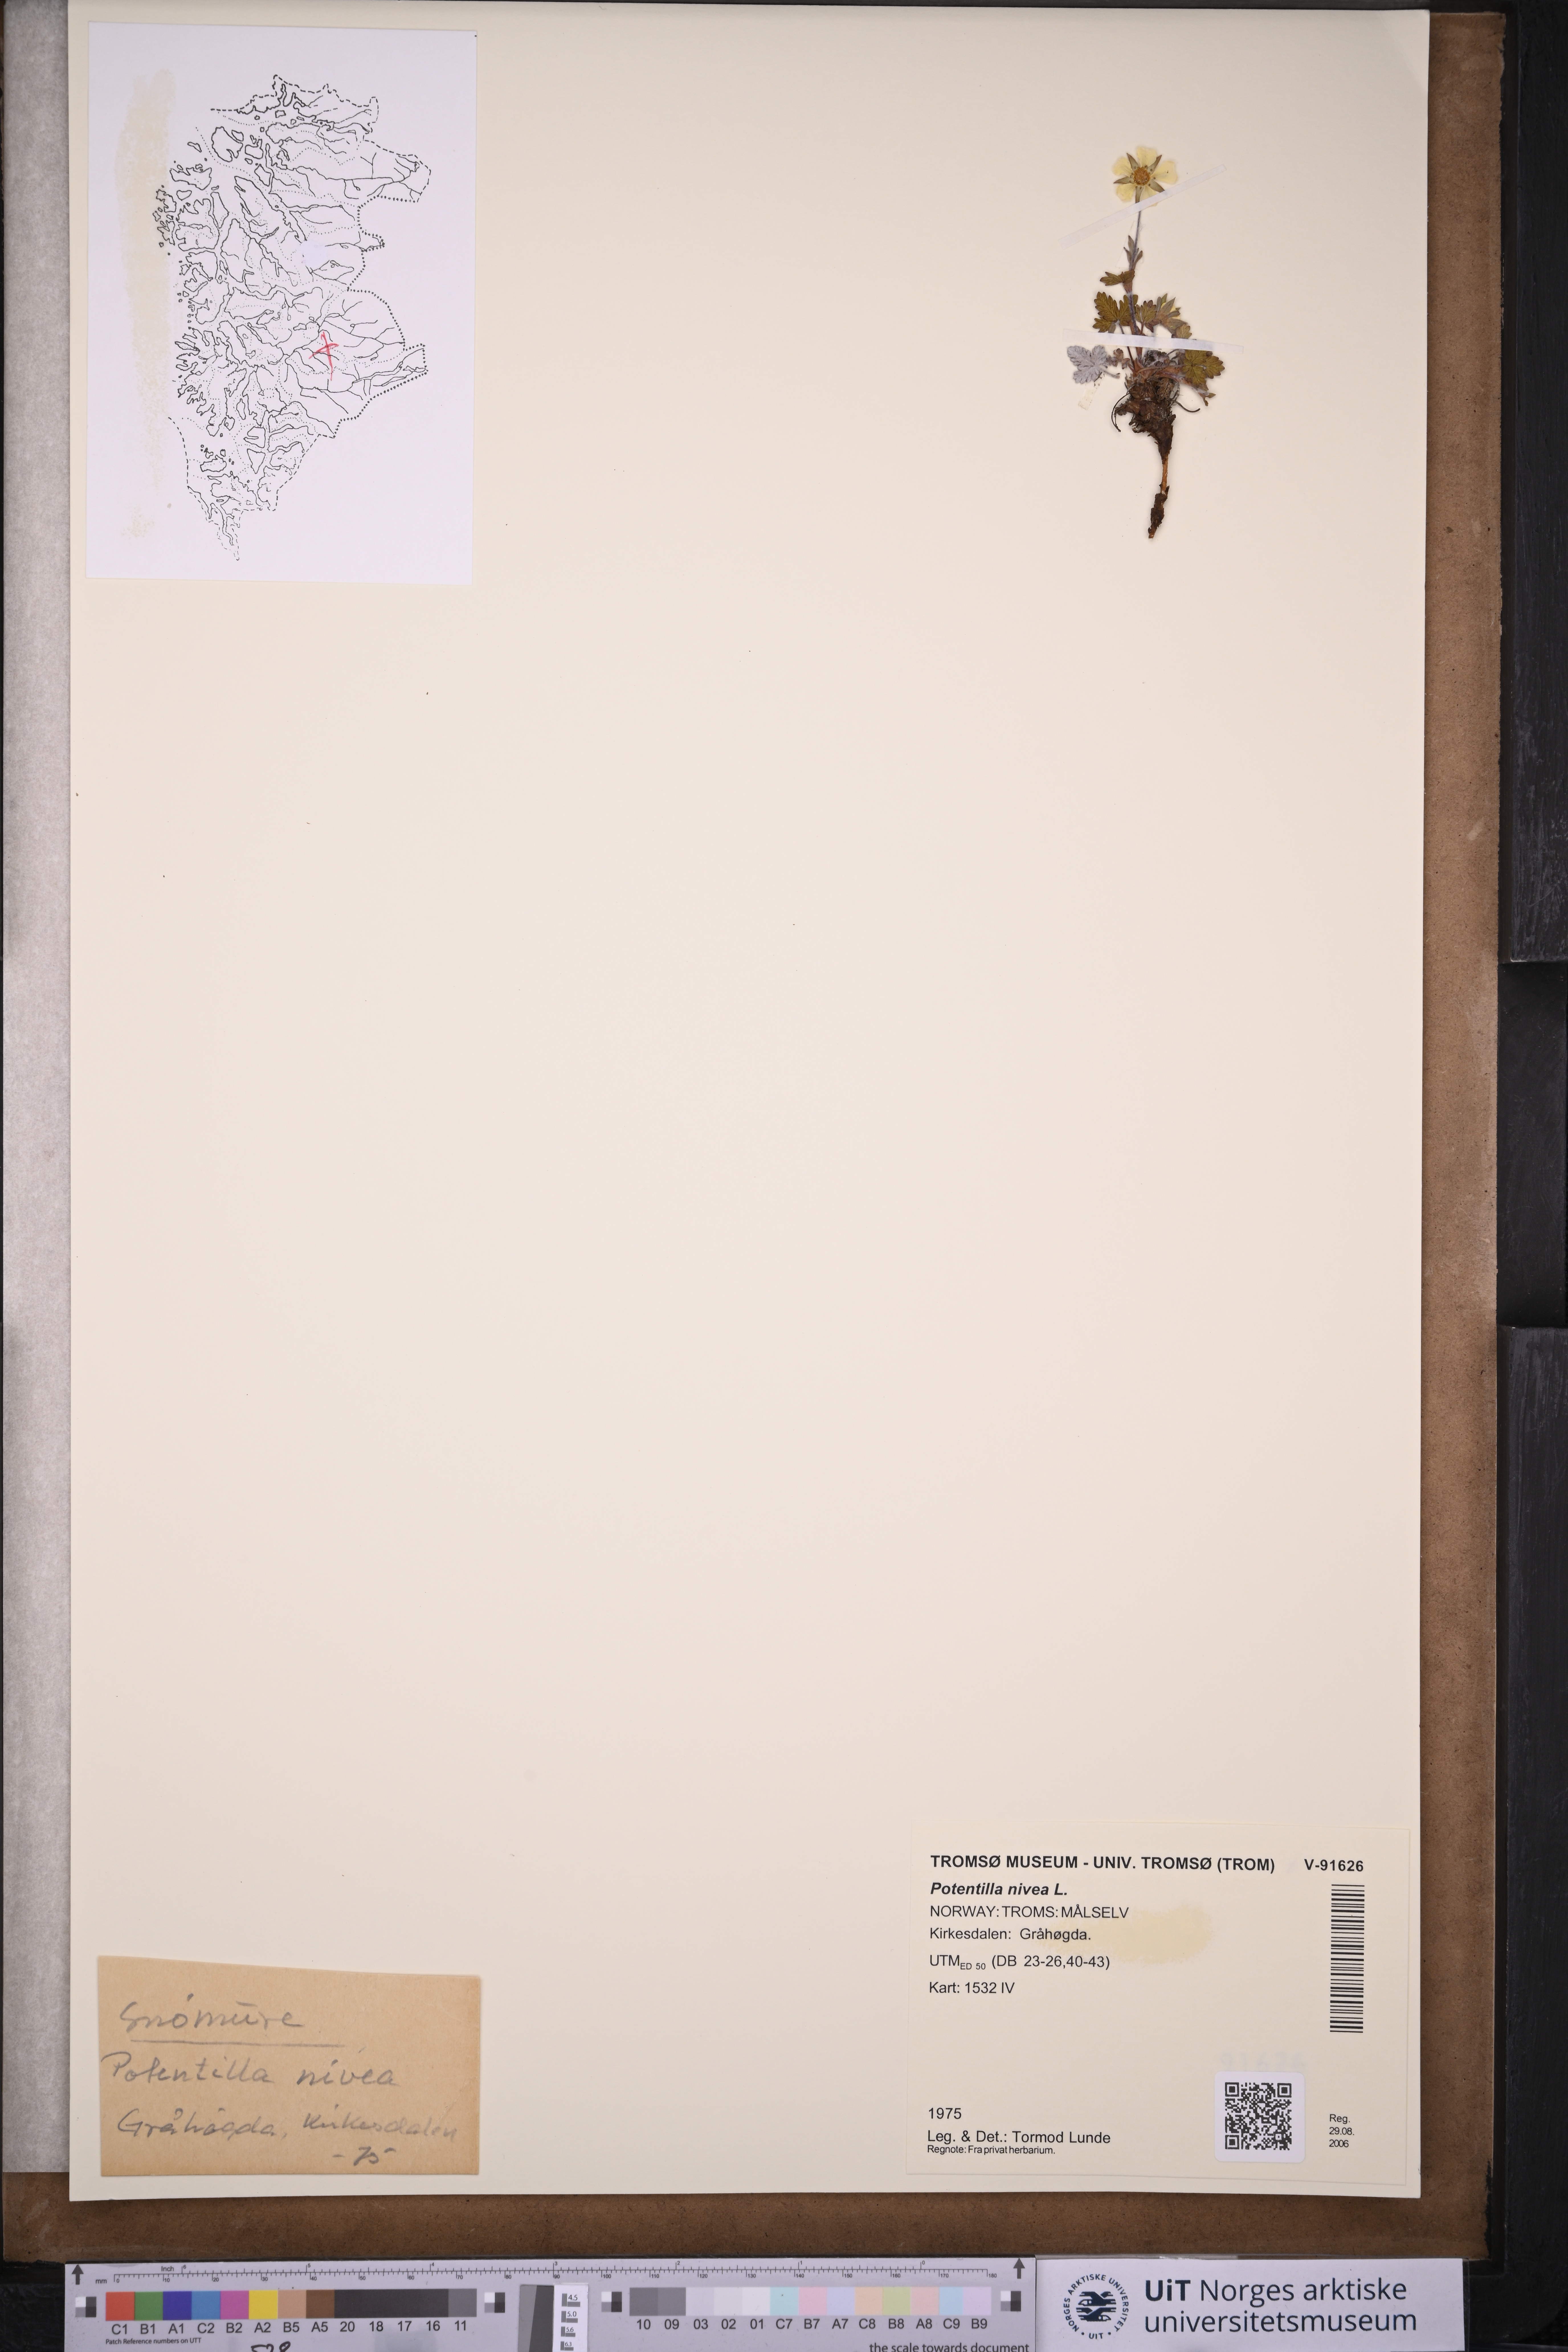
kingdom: Plantae
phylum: Tracheophyta
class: Magnoliopsida
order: Rosales
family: Rosaceae
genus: Potentilla
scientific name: Potentilla arenosa
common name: Bluff cinquefoil
